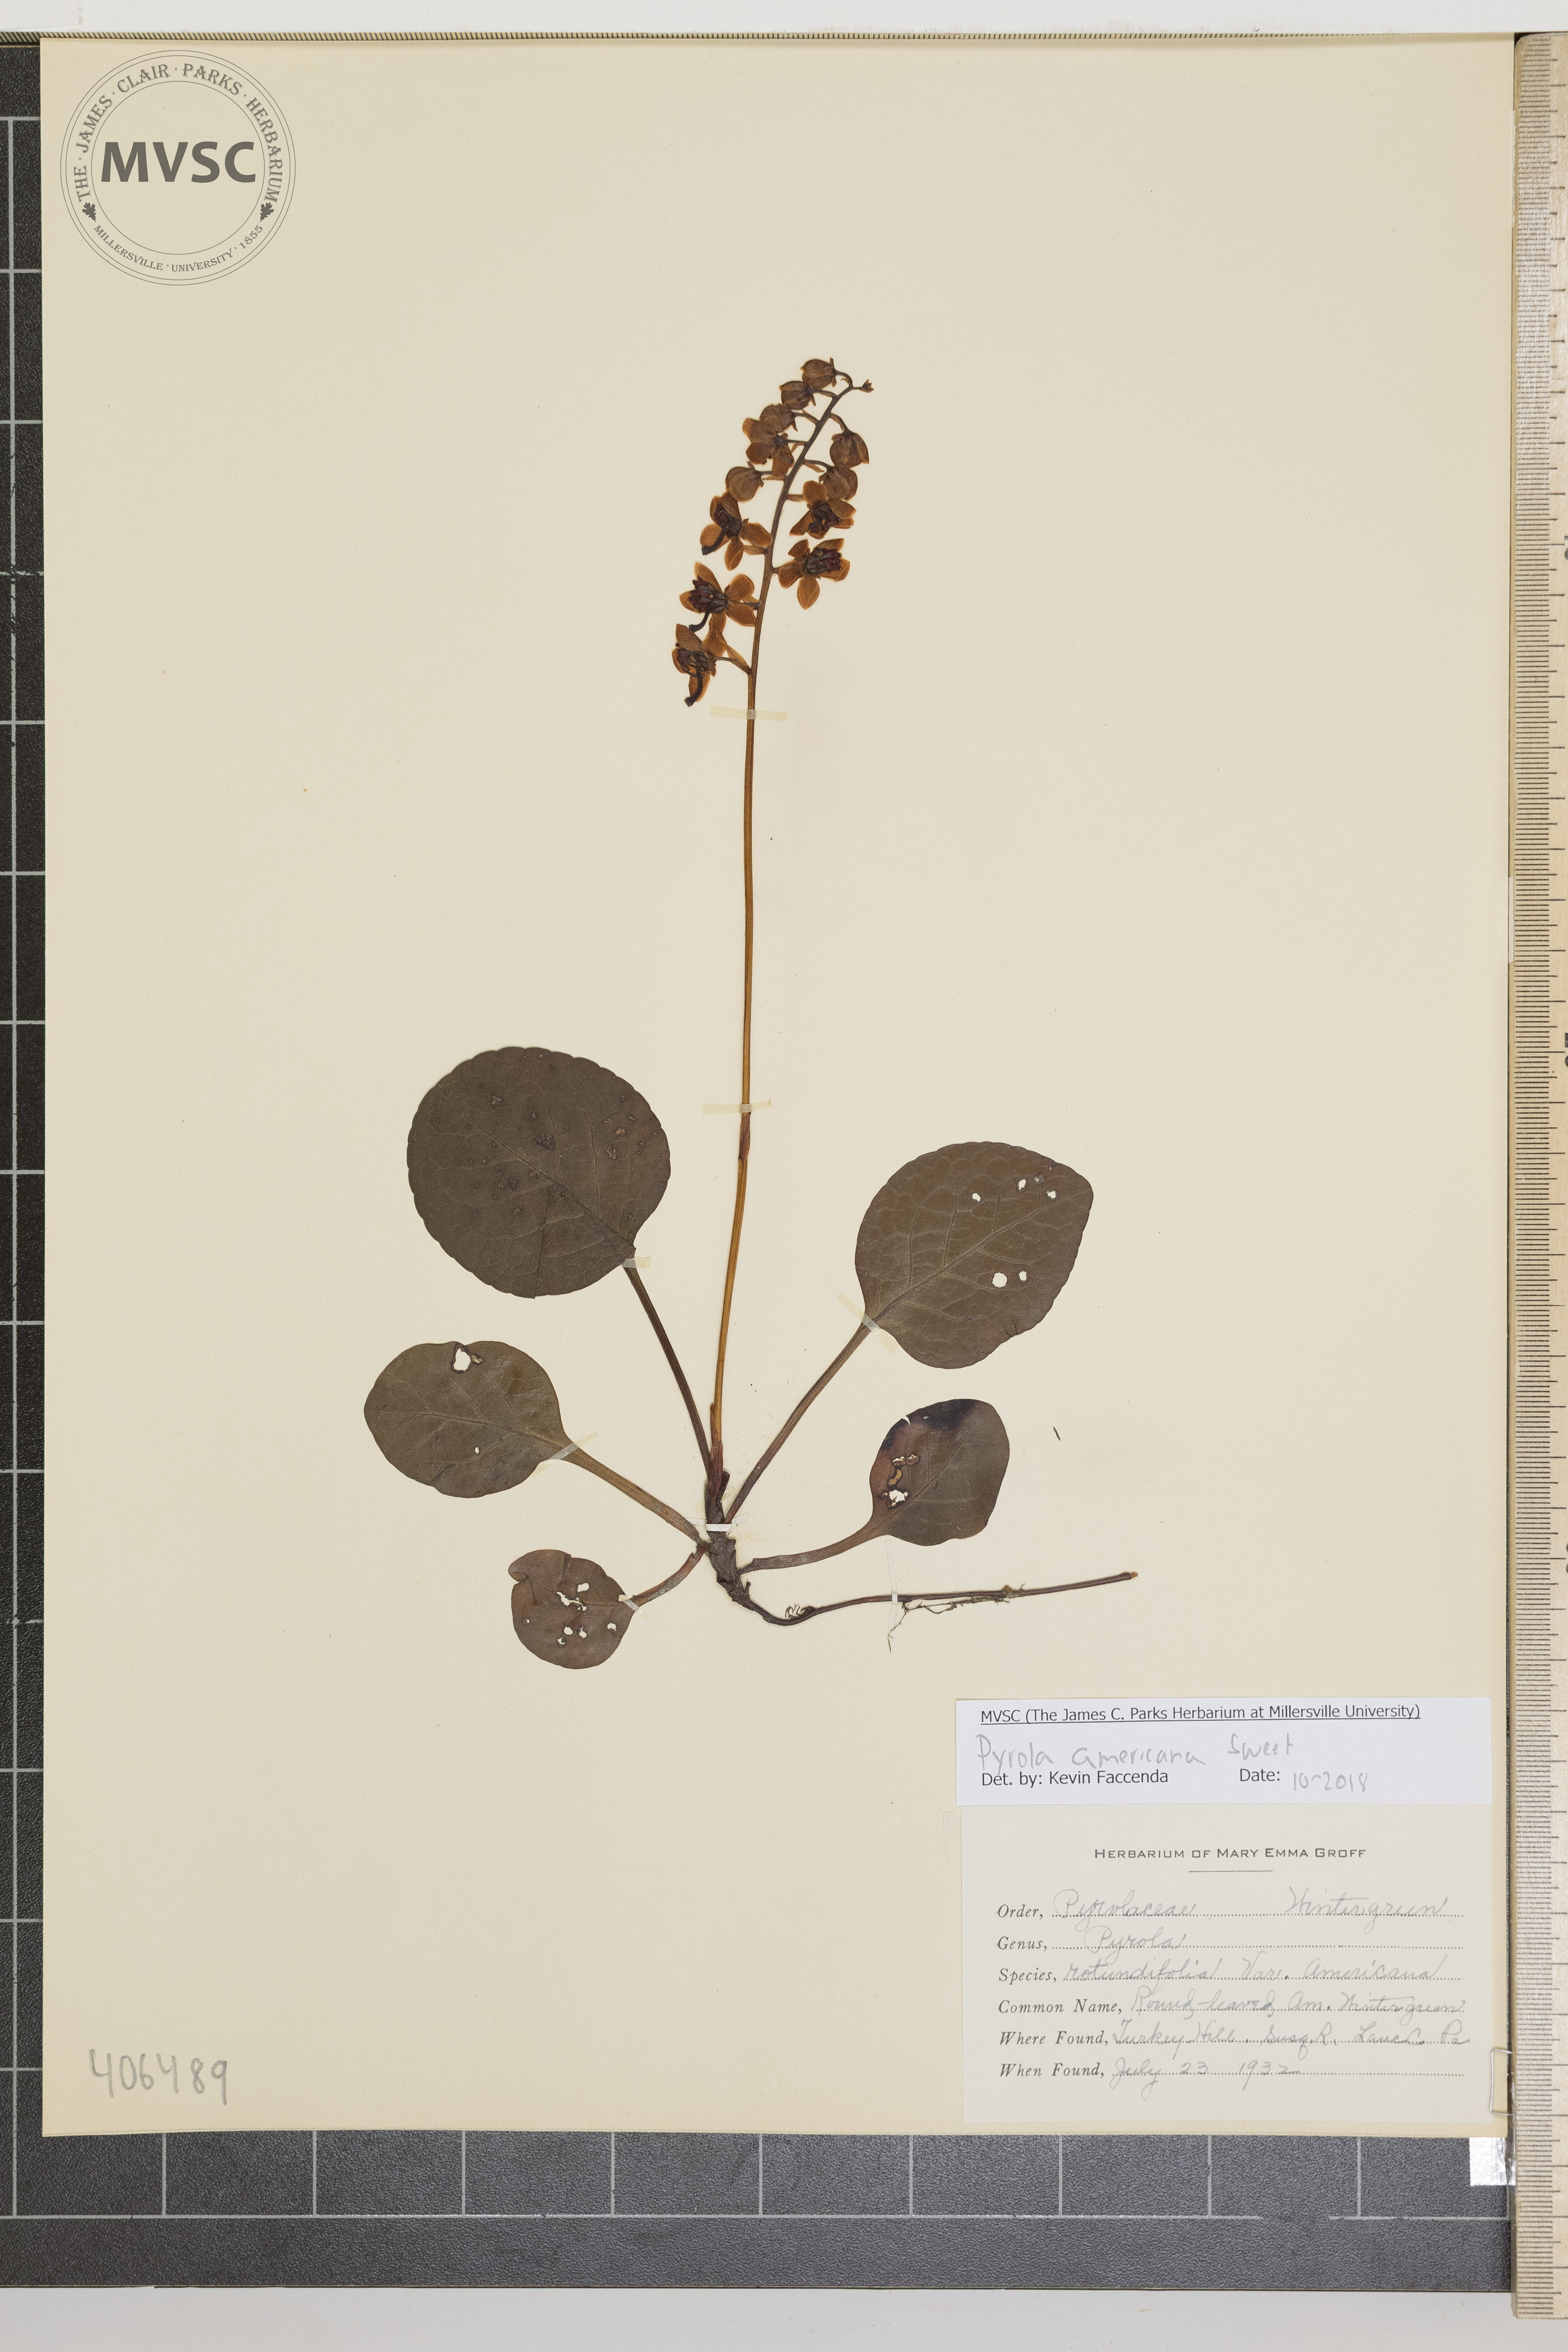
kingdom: Plantae
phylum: Tracheophyta
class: Magnoliopsida
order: Ericales
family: Ericaceae
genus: Pyrola
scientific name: Pyrola americana
